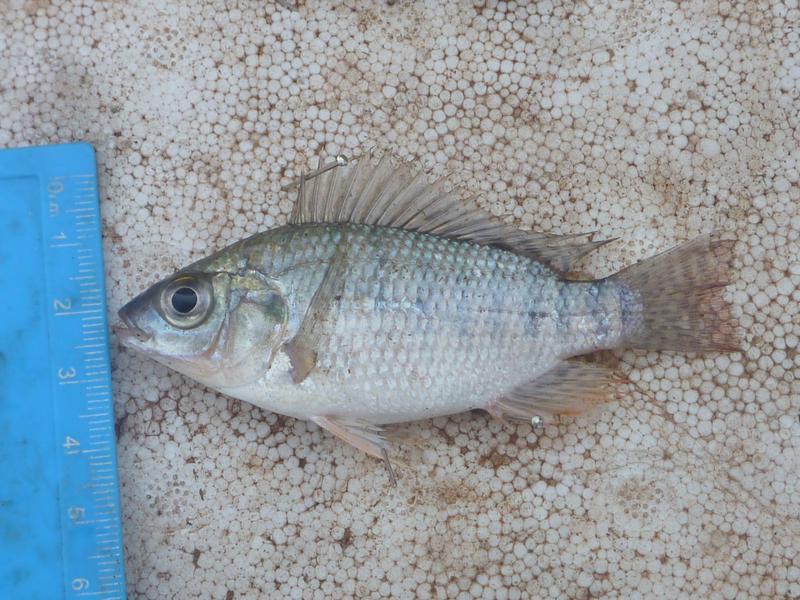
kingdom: Animalia
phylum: Chordata
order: Perciformes
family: Cichlidae
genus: Oreochromis
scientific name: Oreochromis niloticus
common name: Nile tilapia
